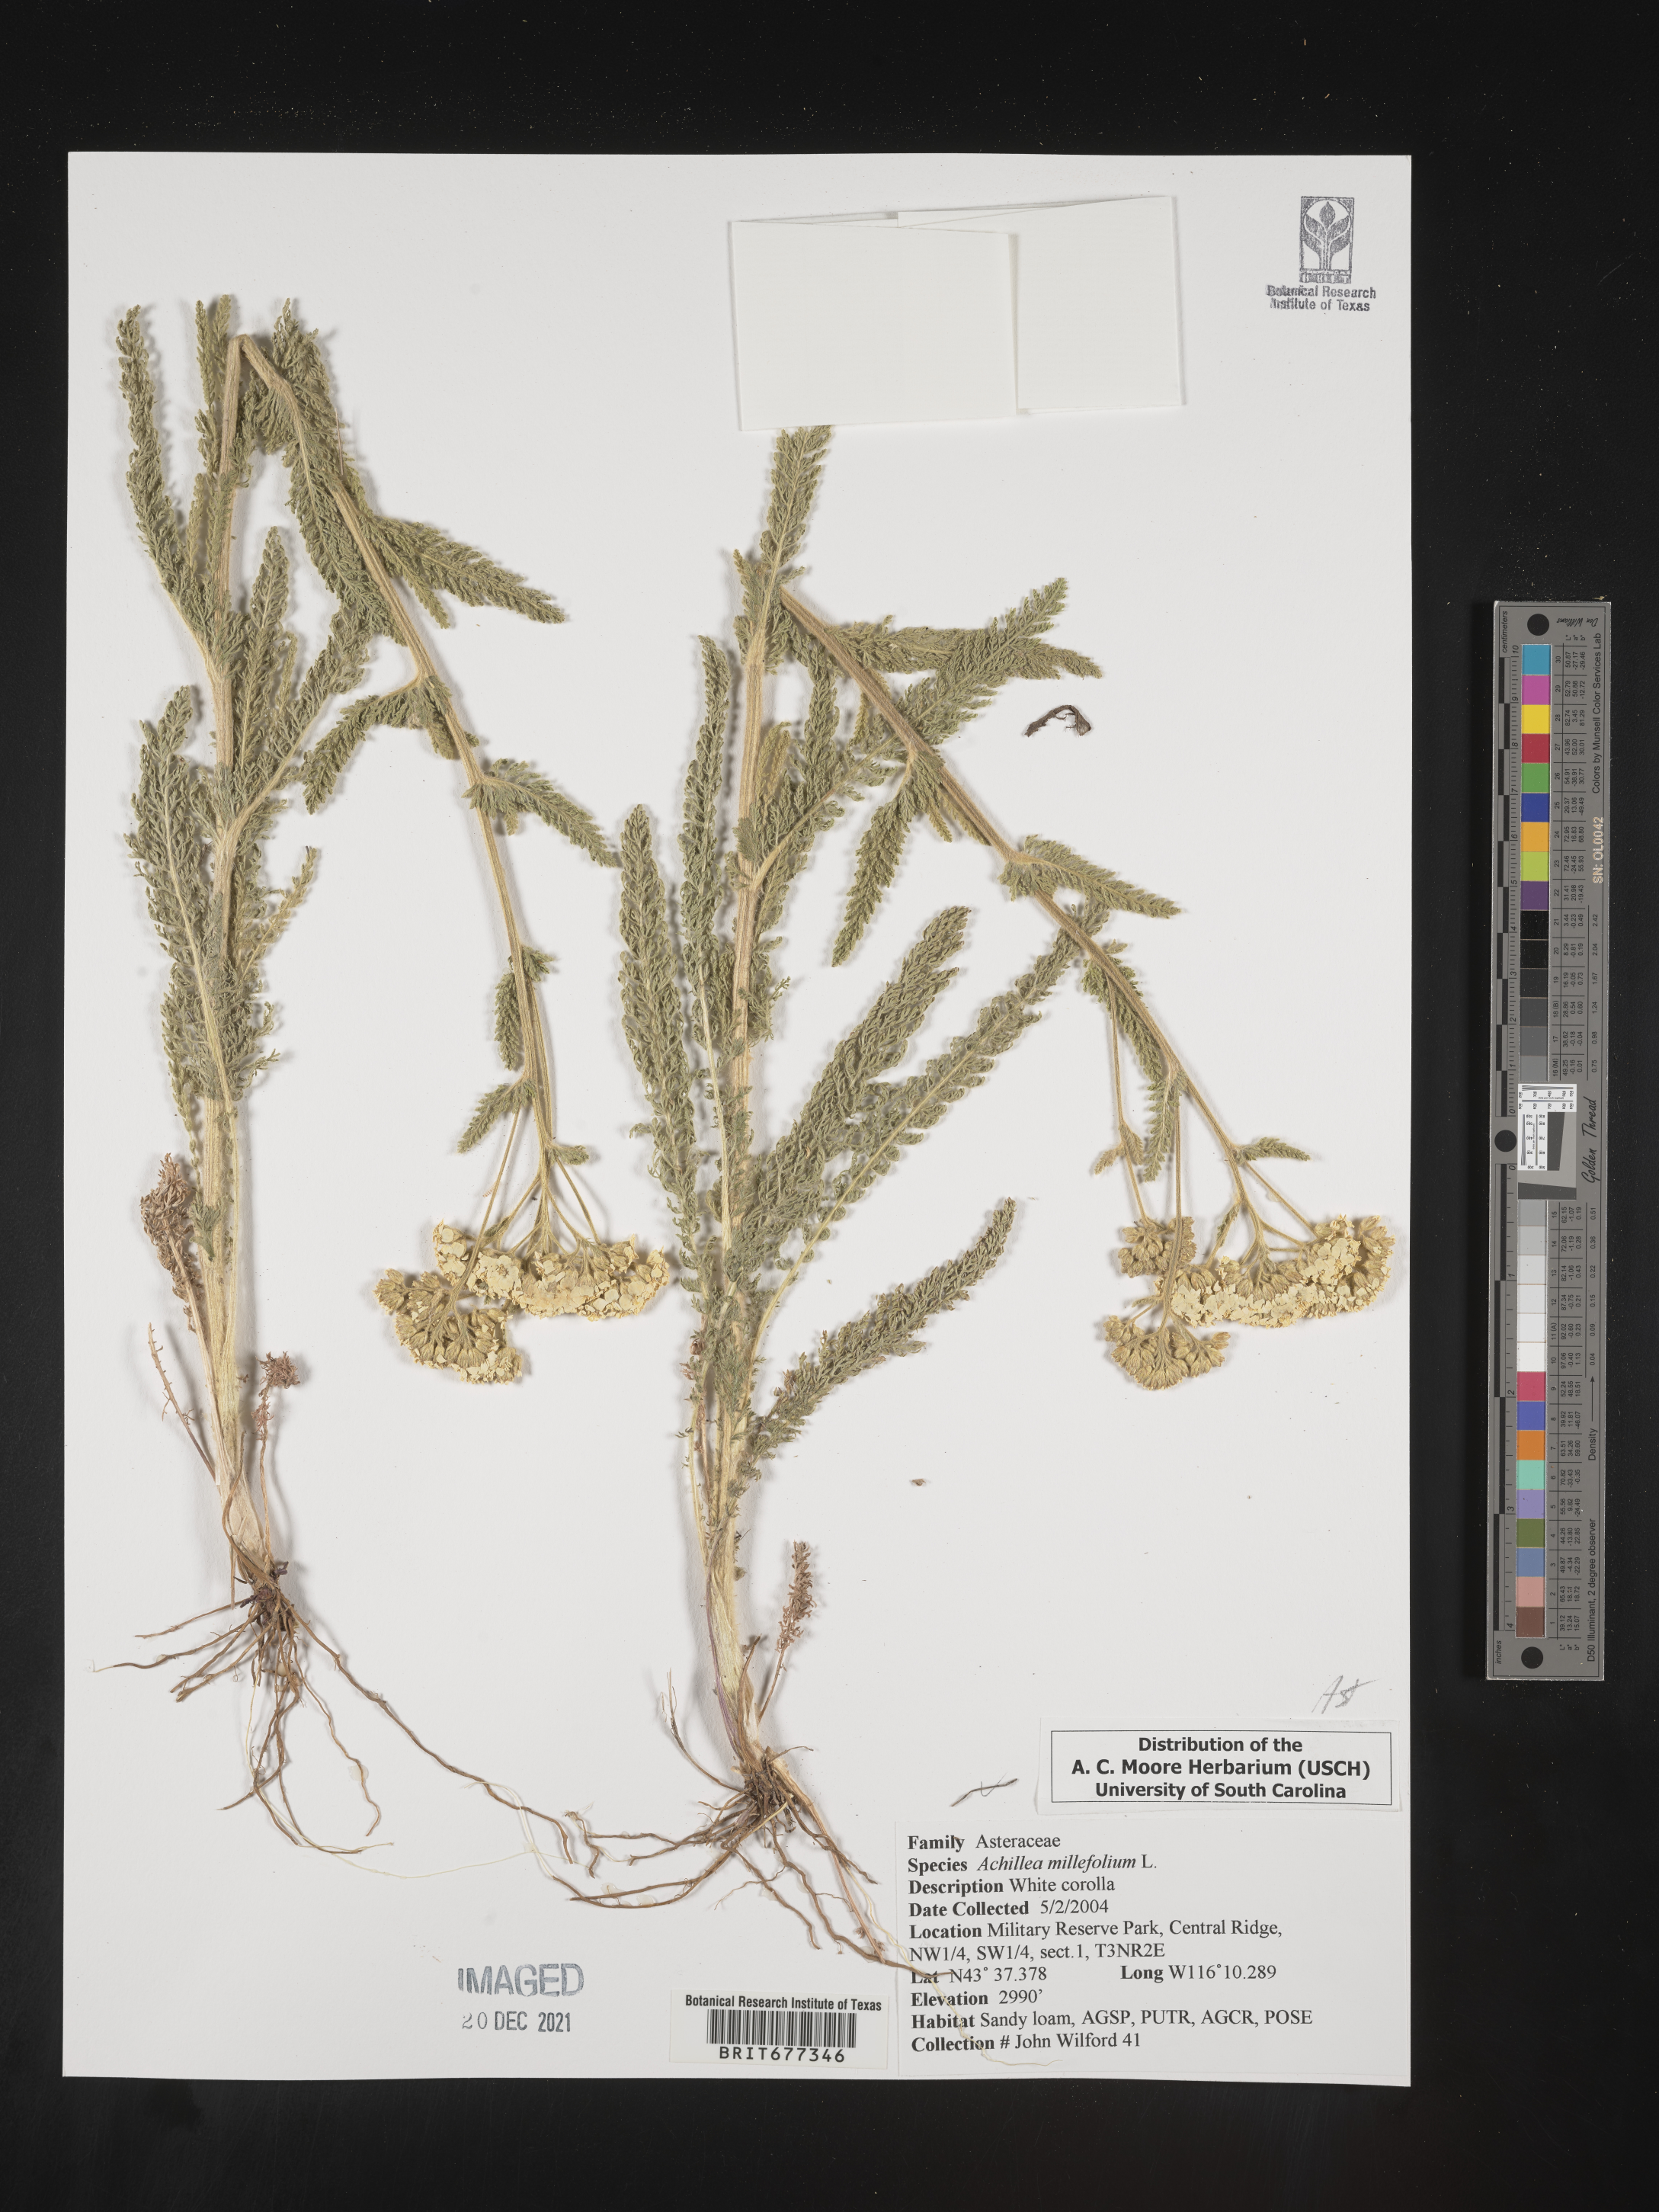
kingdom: Plantae
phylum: Tracheophyta
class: Magnoliopsida
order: Asterales
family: Asteraceae
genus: Achillea
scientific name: Achillea millefolium
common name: Yarrow
